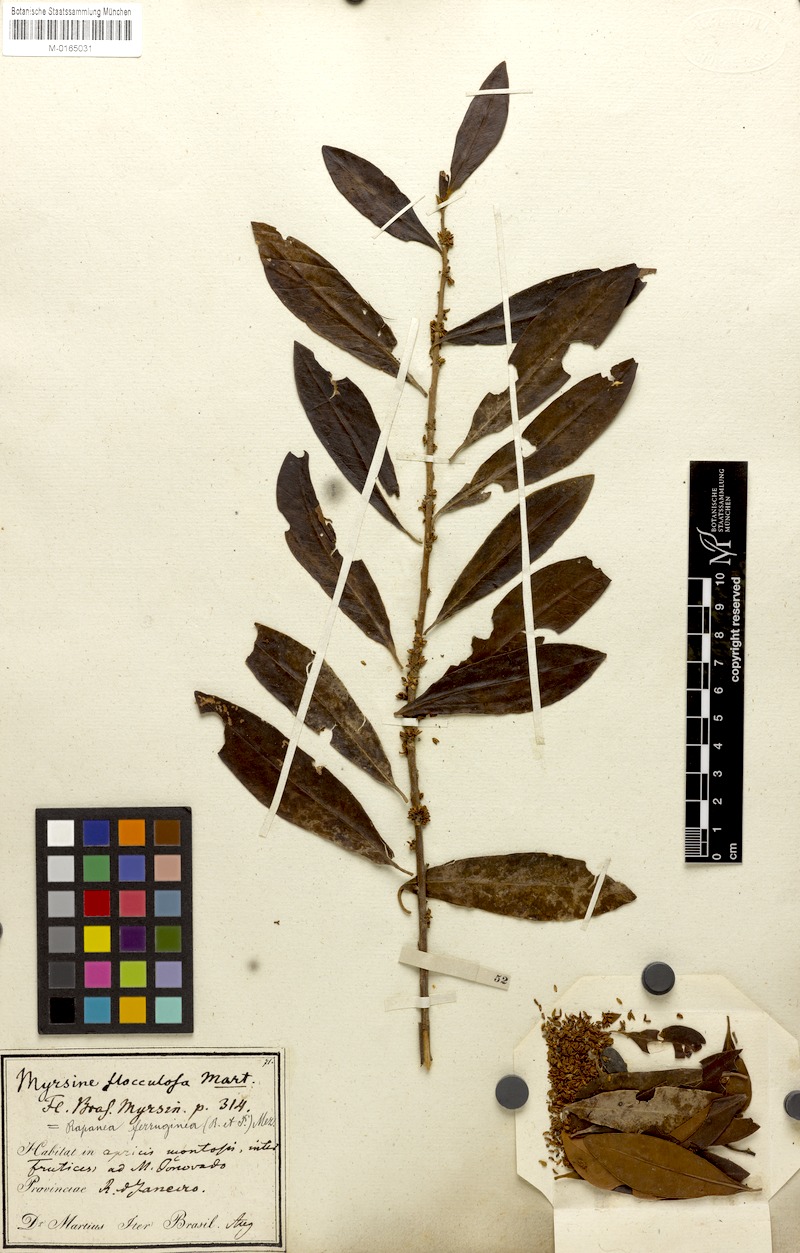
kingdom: Plantae
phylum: Tracheophyta
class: Magnoliopsida
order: Ericales
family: Primulaceae
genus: Myrsine
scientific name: Myrsine coriacea
